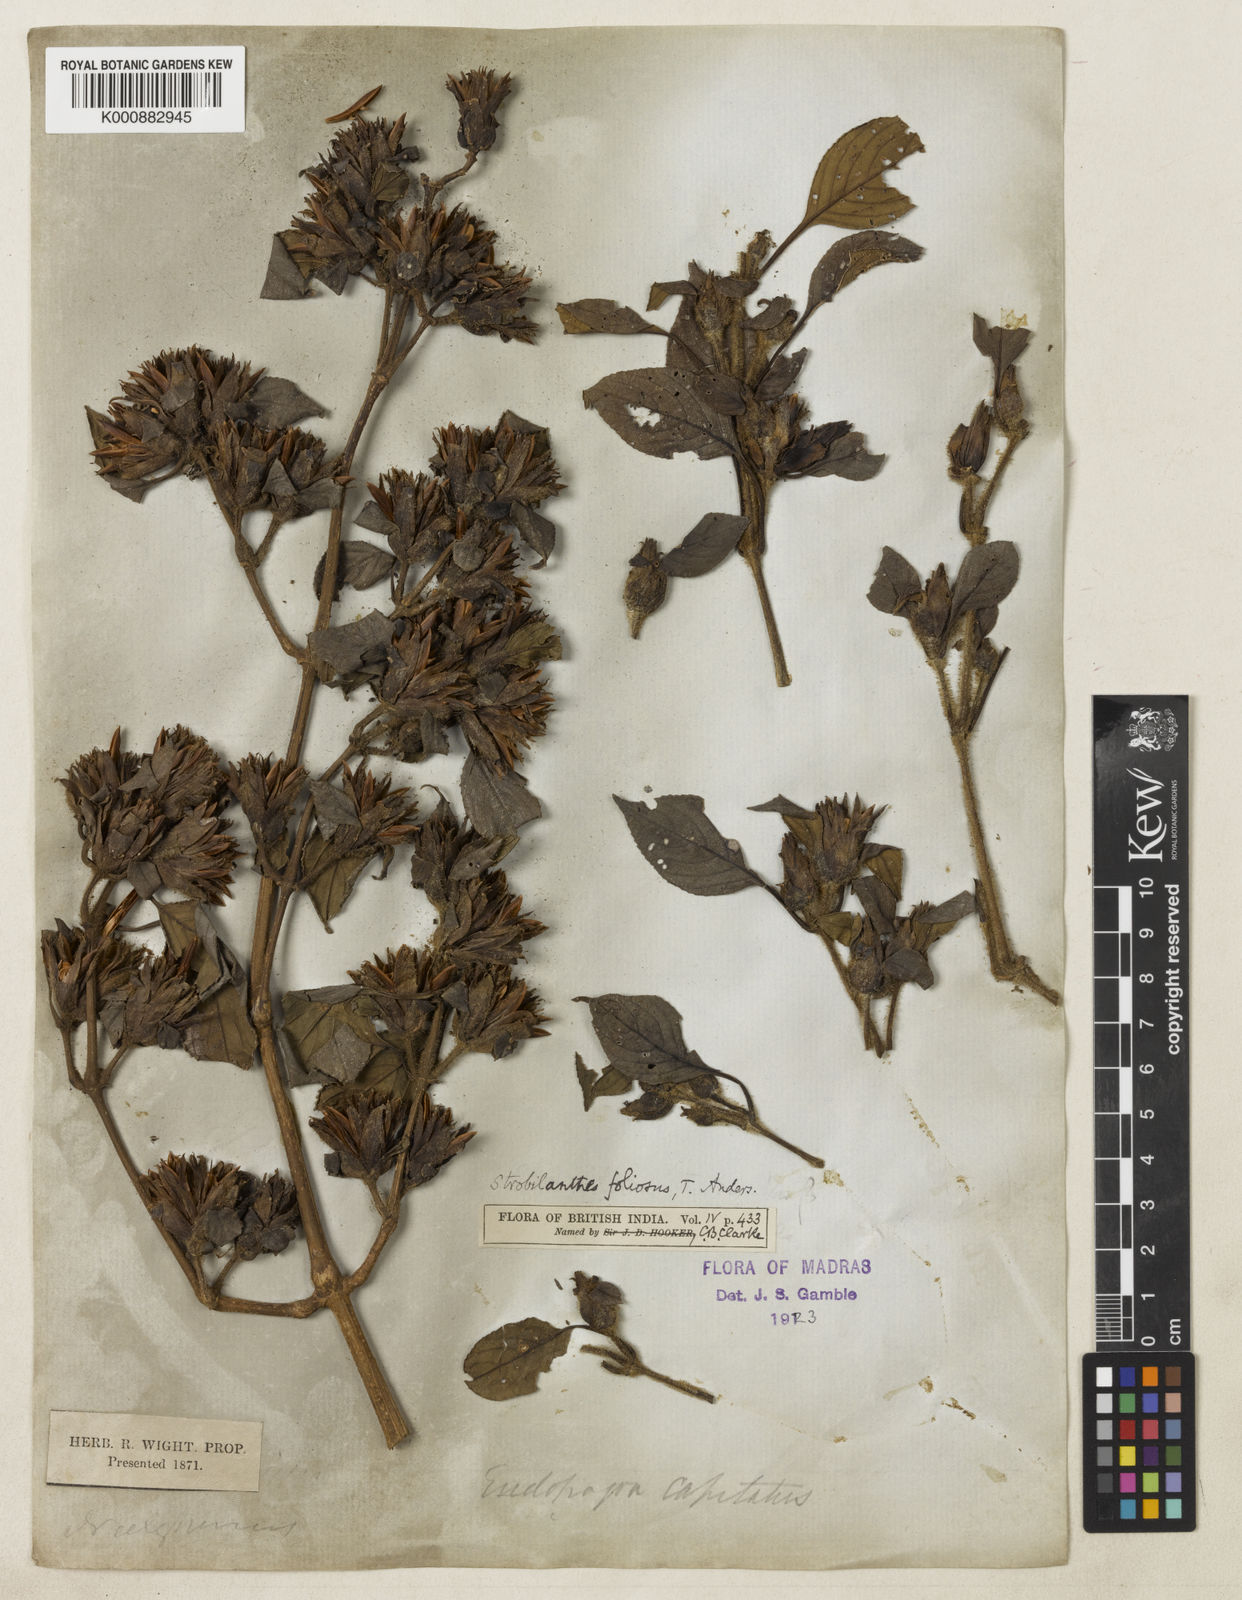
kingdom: Plantae
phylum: Tracheophyta
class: Magnoliopsida
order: Lamiales
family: Acanthaceae
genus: Strobilanthes
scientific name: Strobilanthes foliosa
